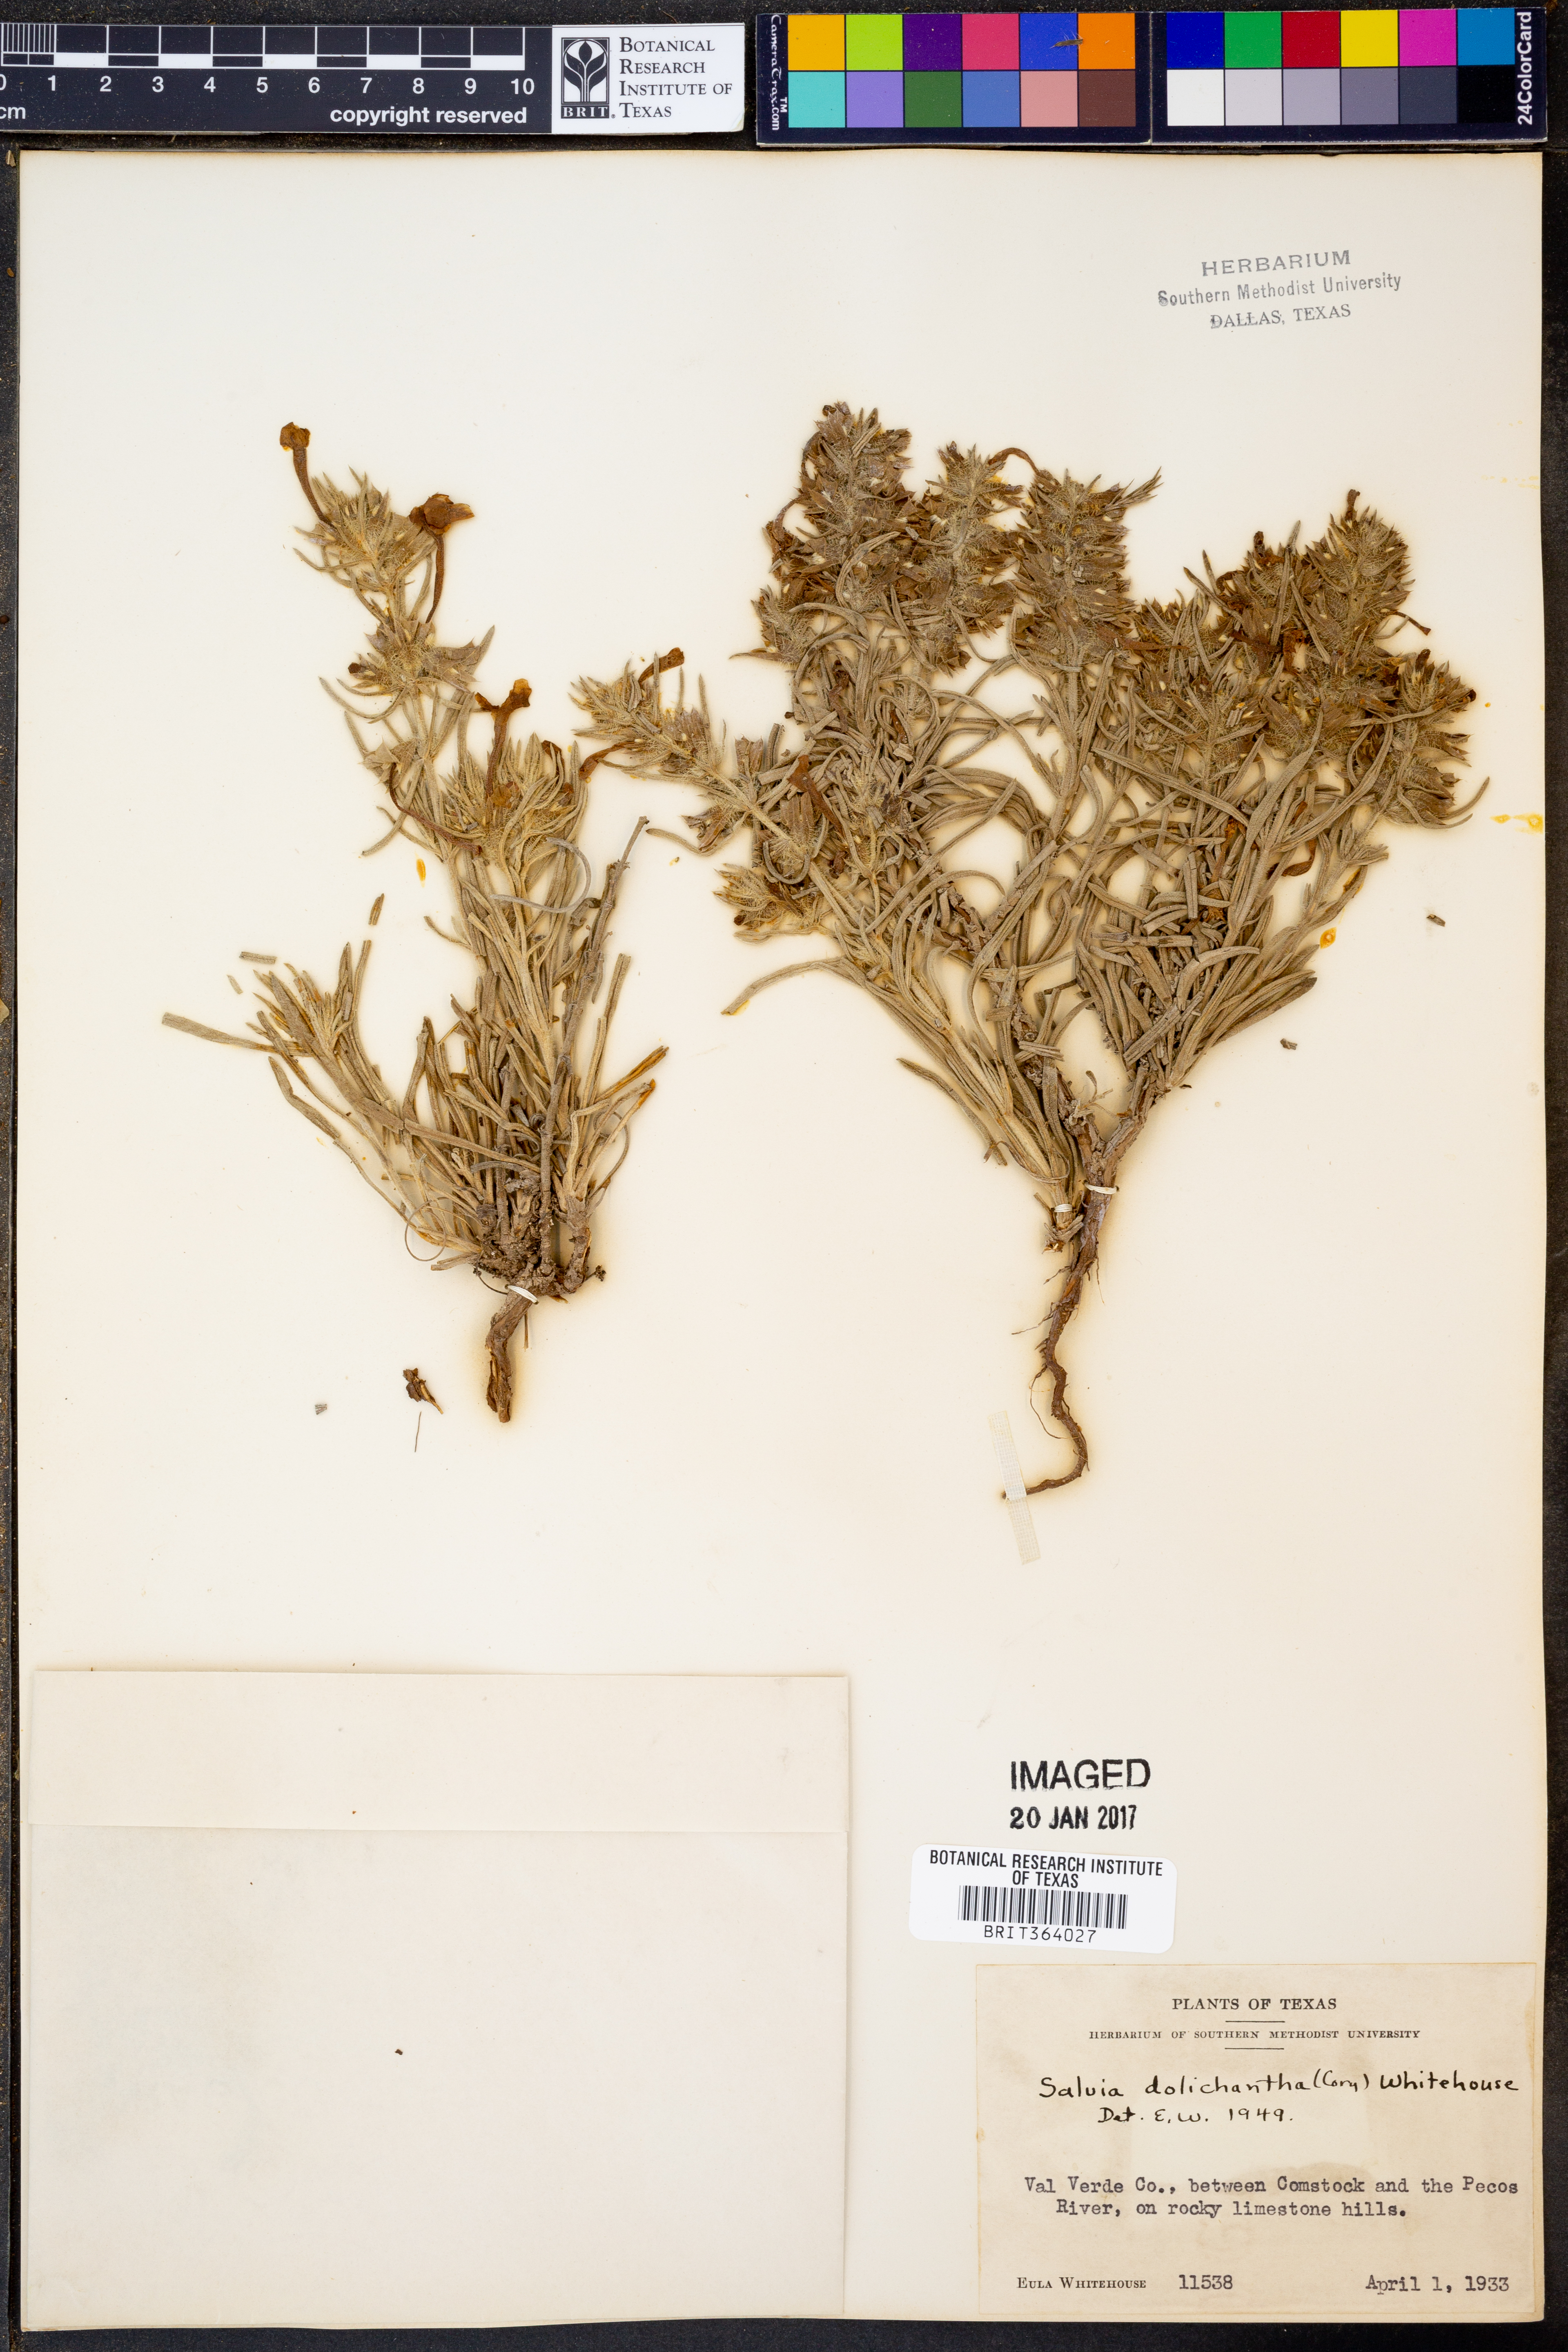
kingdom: Plantae
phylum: Tracheophyta
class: Magnoliopsida
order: Lamiales
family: Lamiaceae
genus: Salvia
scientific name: Salvia whitehousei
